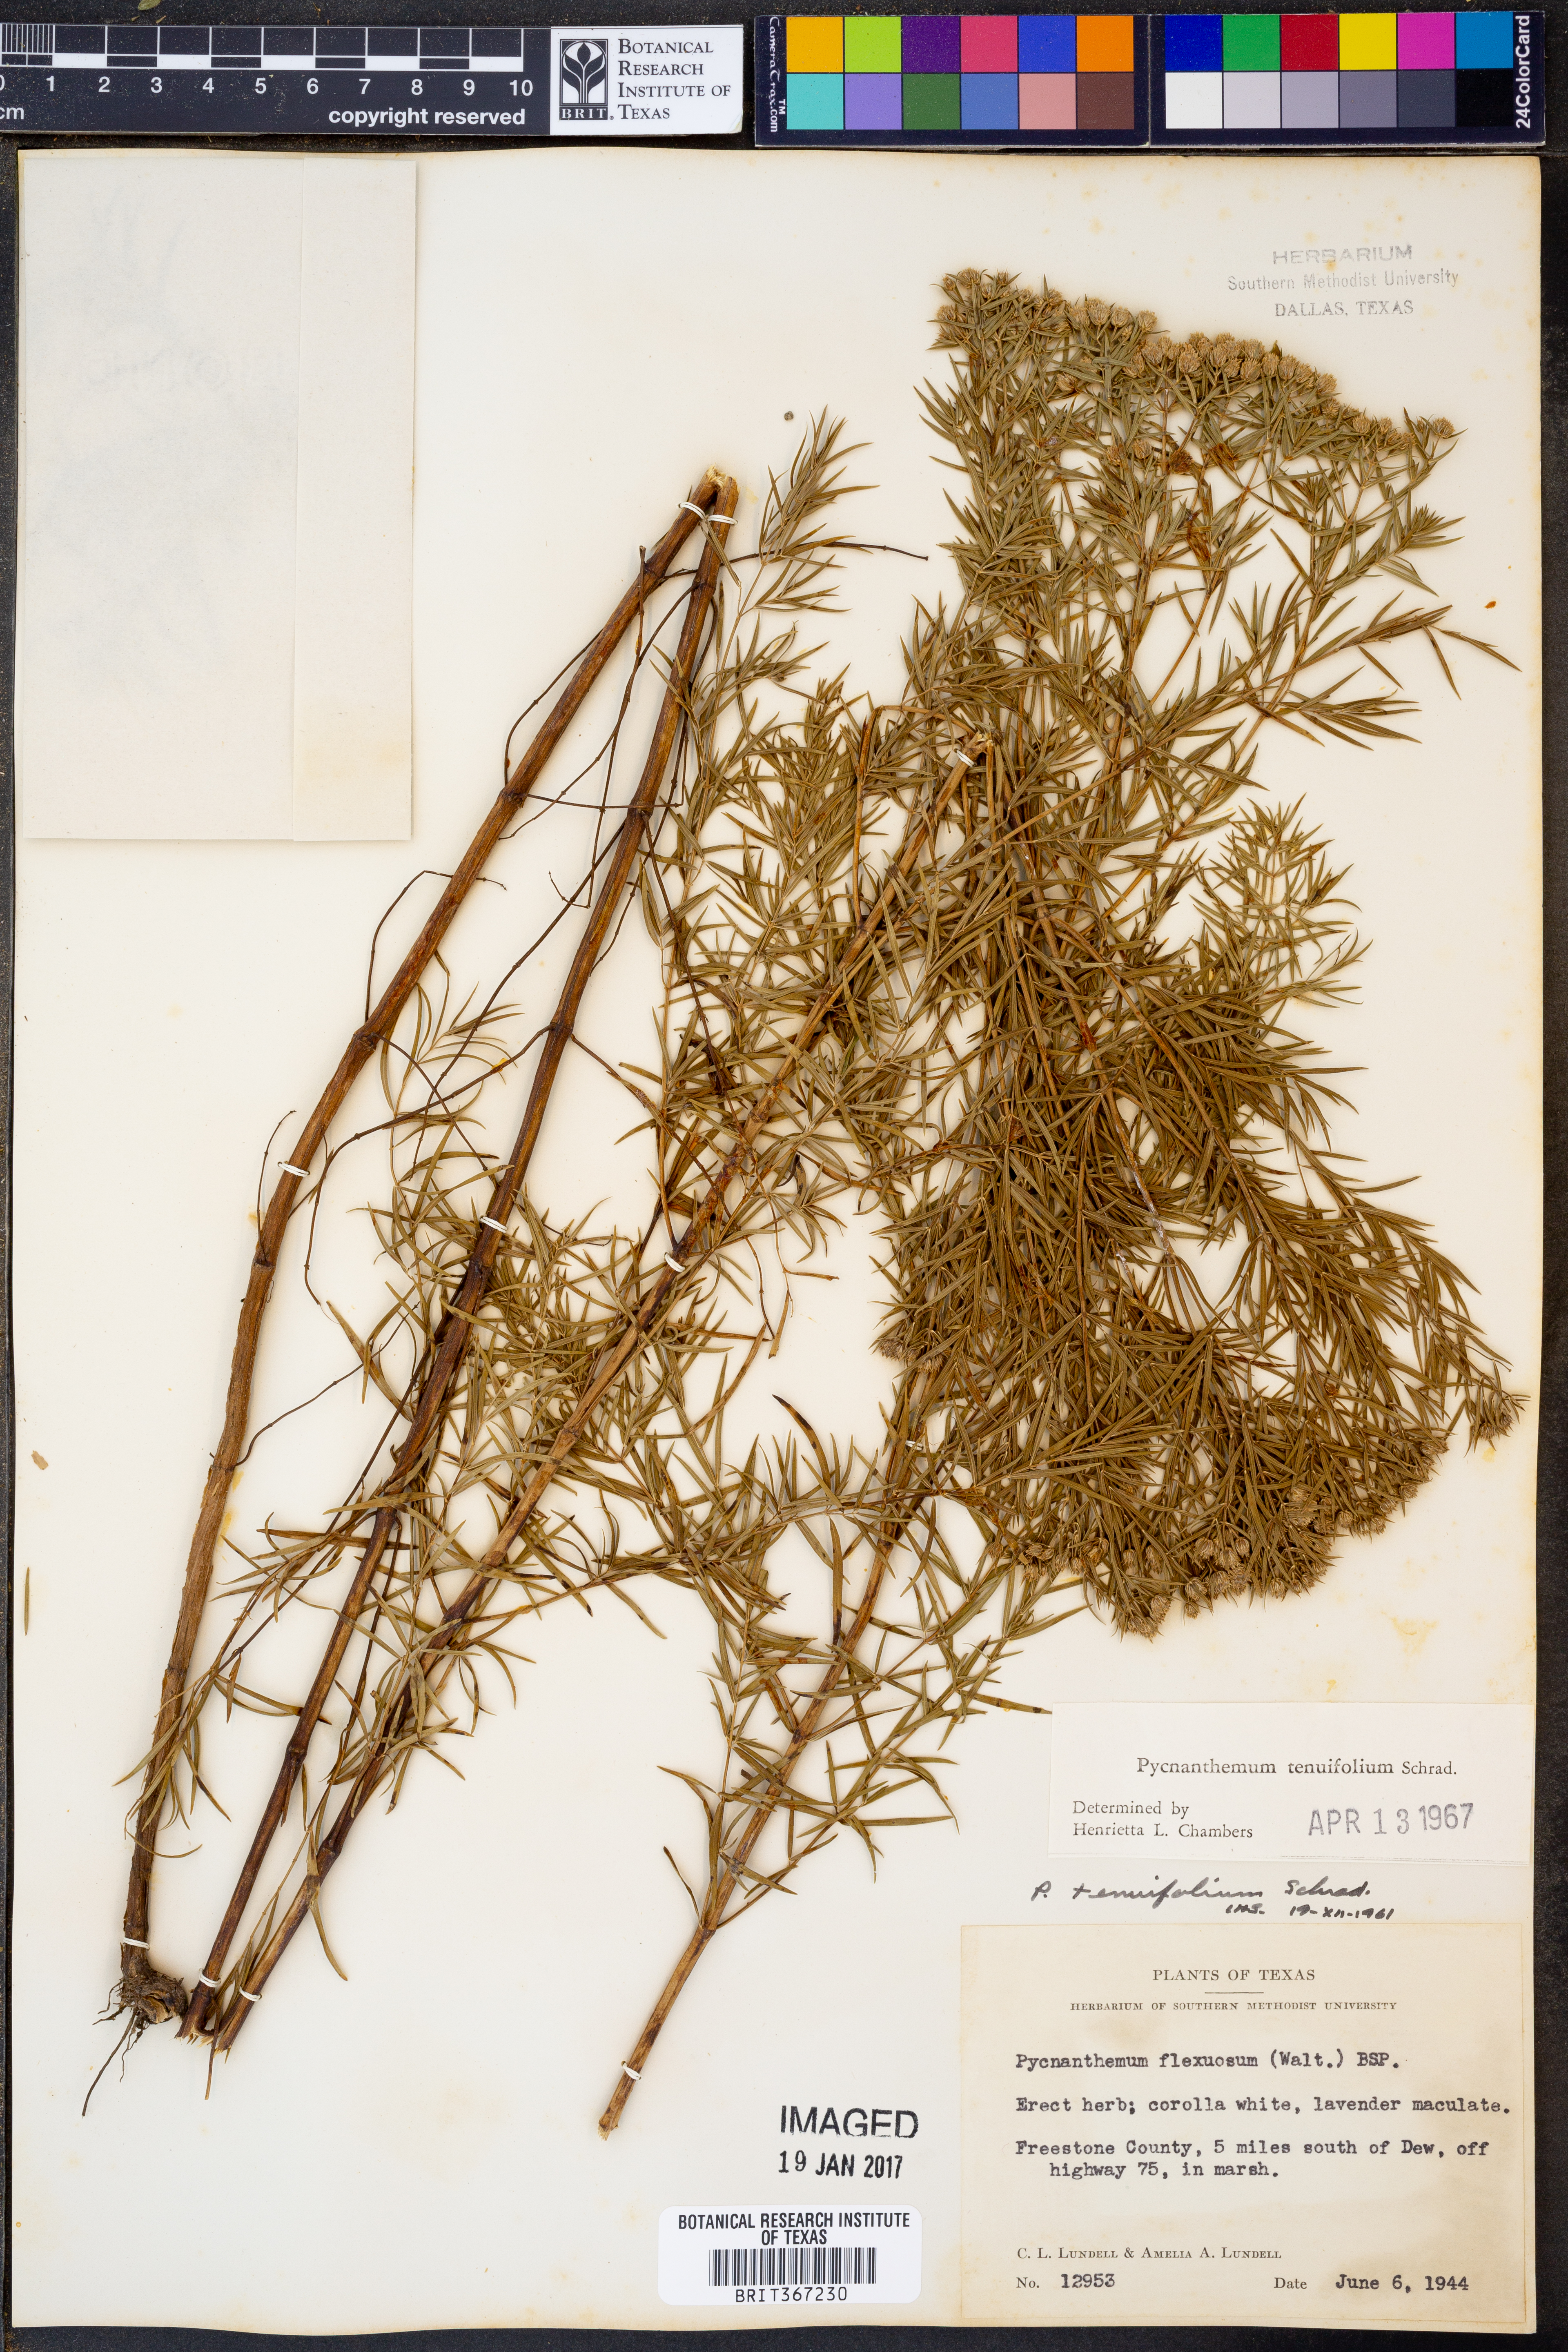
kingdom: Plantae
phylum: Tracheophyta
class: Magnoliopsida
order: Lamiales
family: Lamiaceae
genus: Pycnanthemum
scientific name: Pycnanthemum tenuifolium
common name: Narrow-leaf mountain-mint
